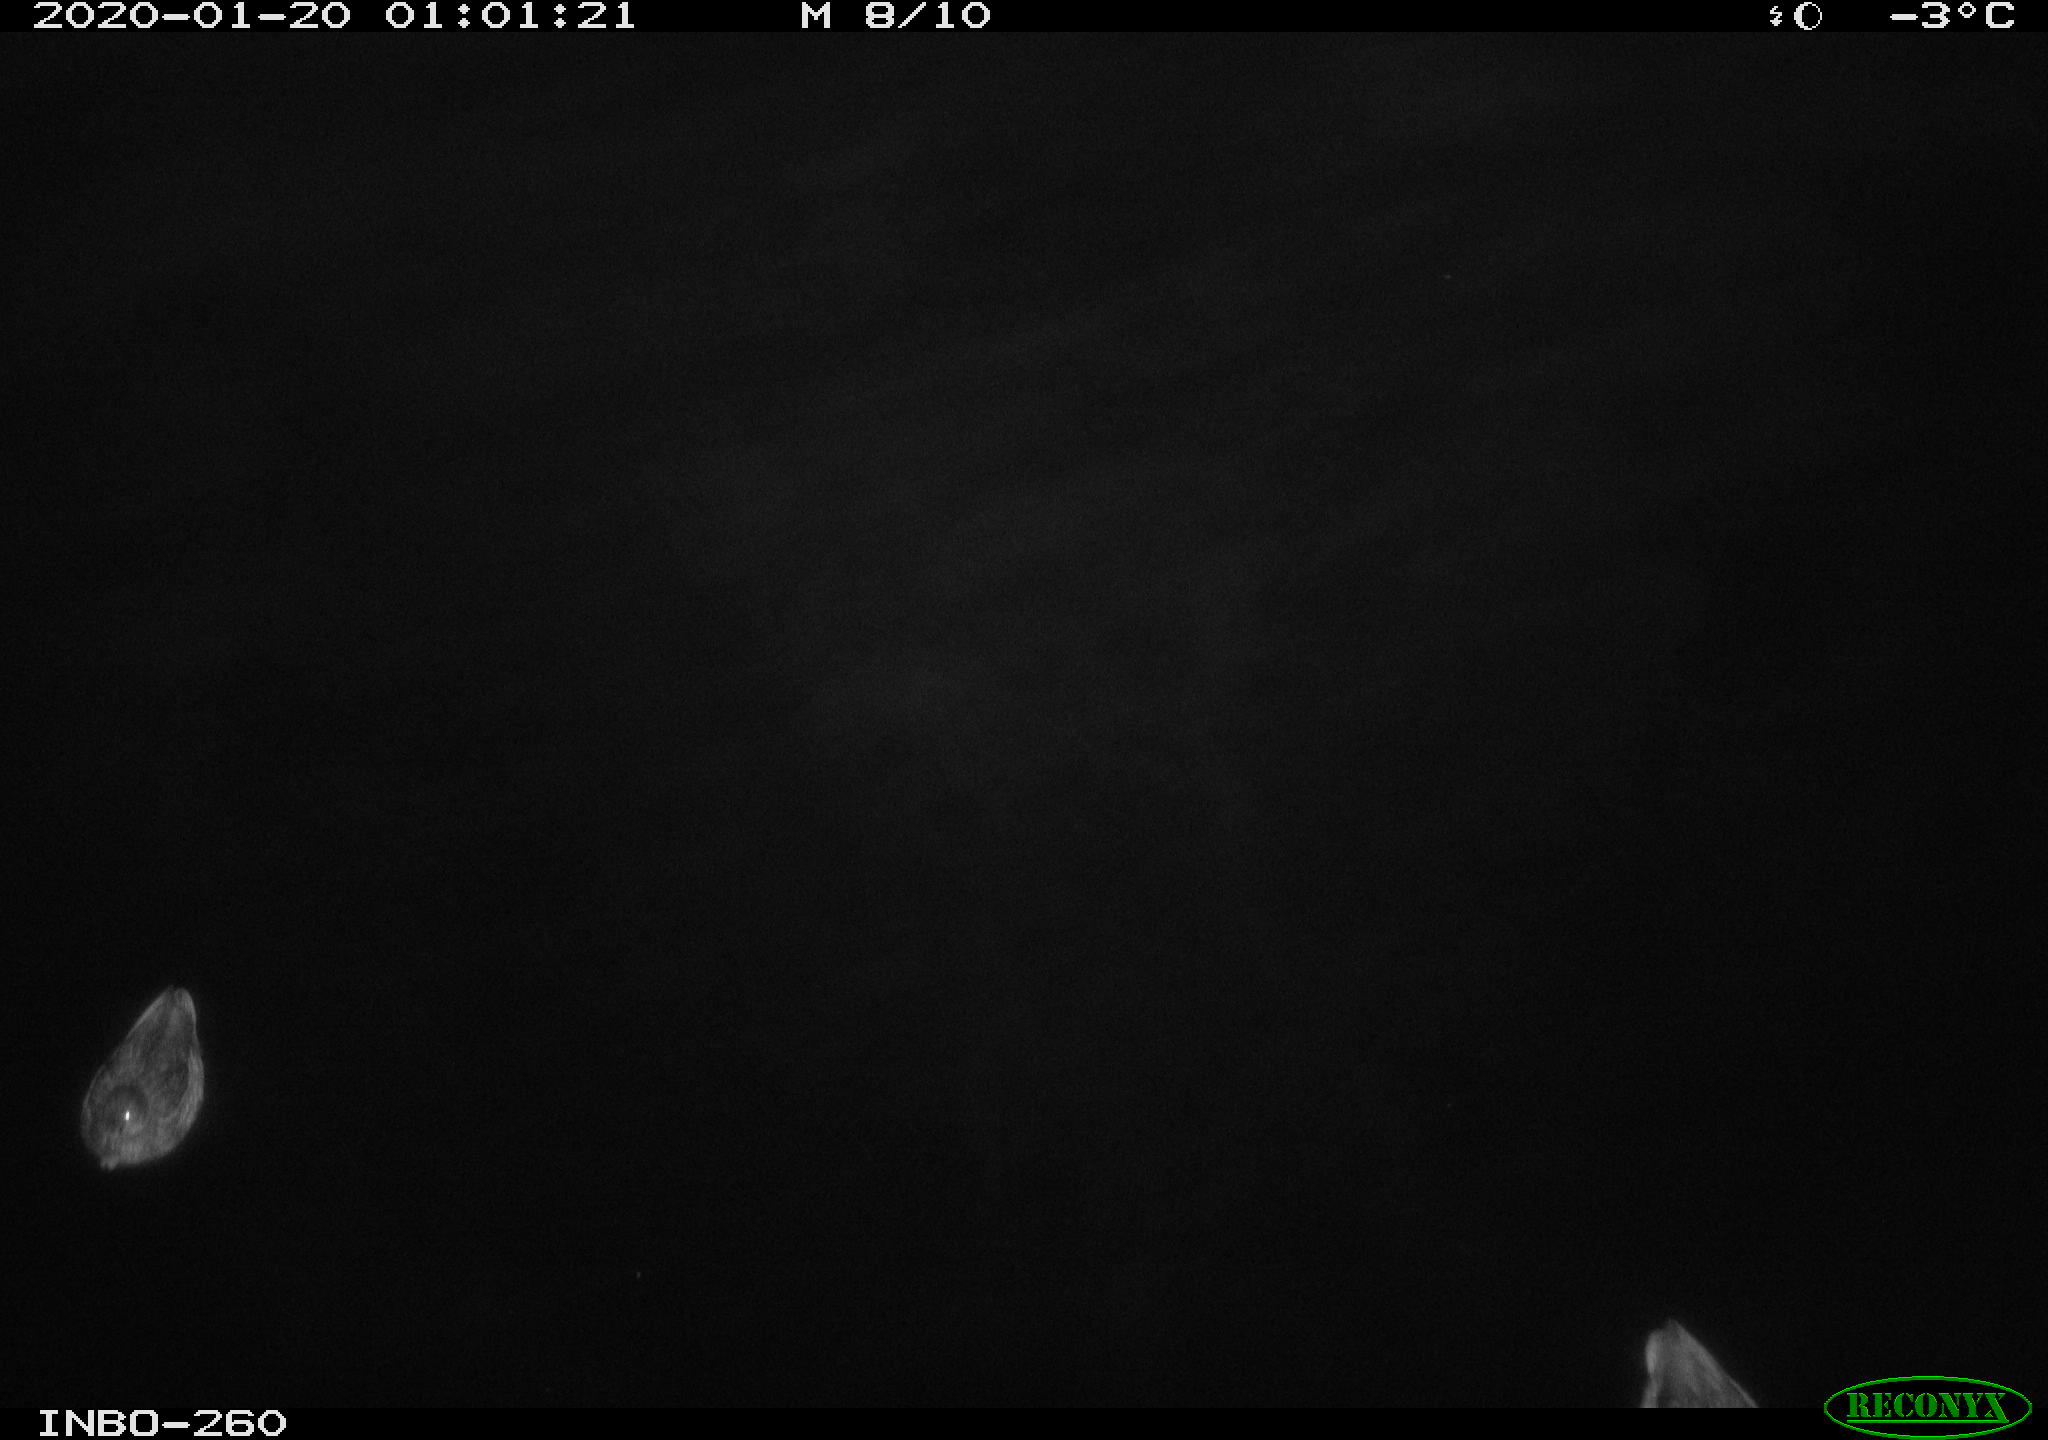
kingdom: Animalia
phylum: Chordata
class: Aves
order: Anseriformes
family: Anatidae
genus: Anas
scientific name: Anas platyrhynchos
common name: Mallard
